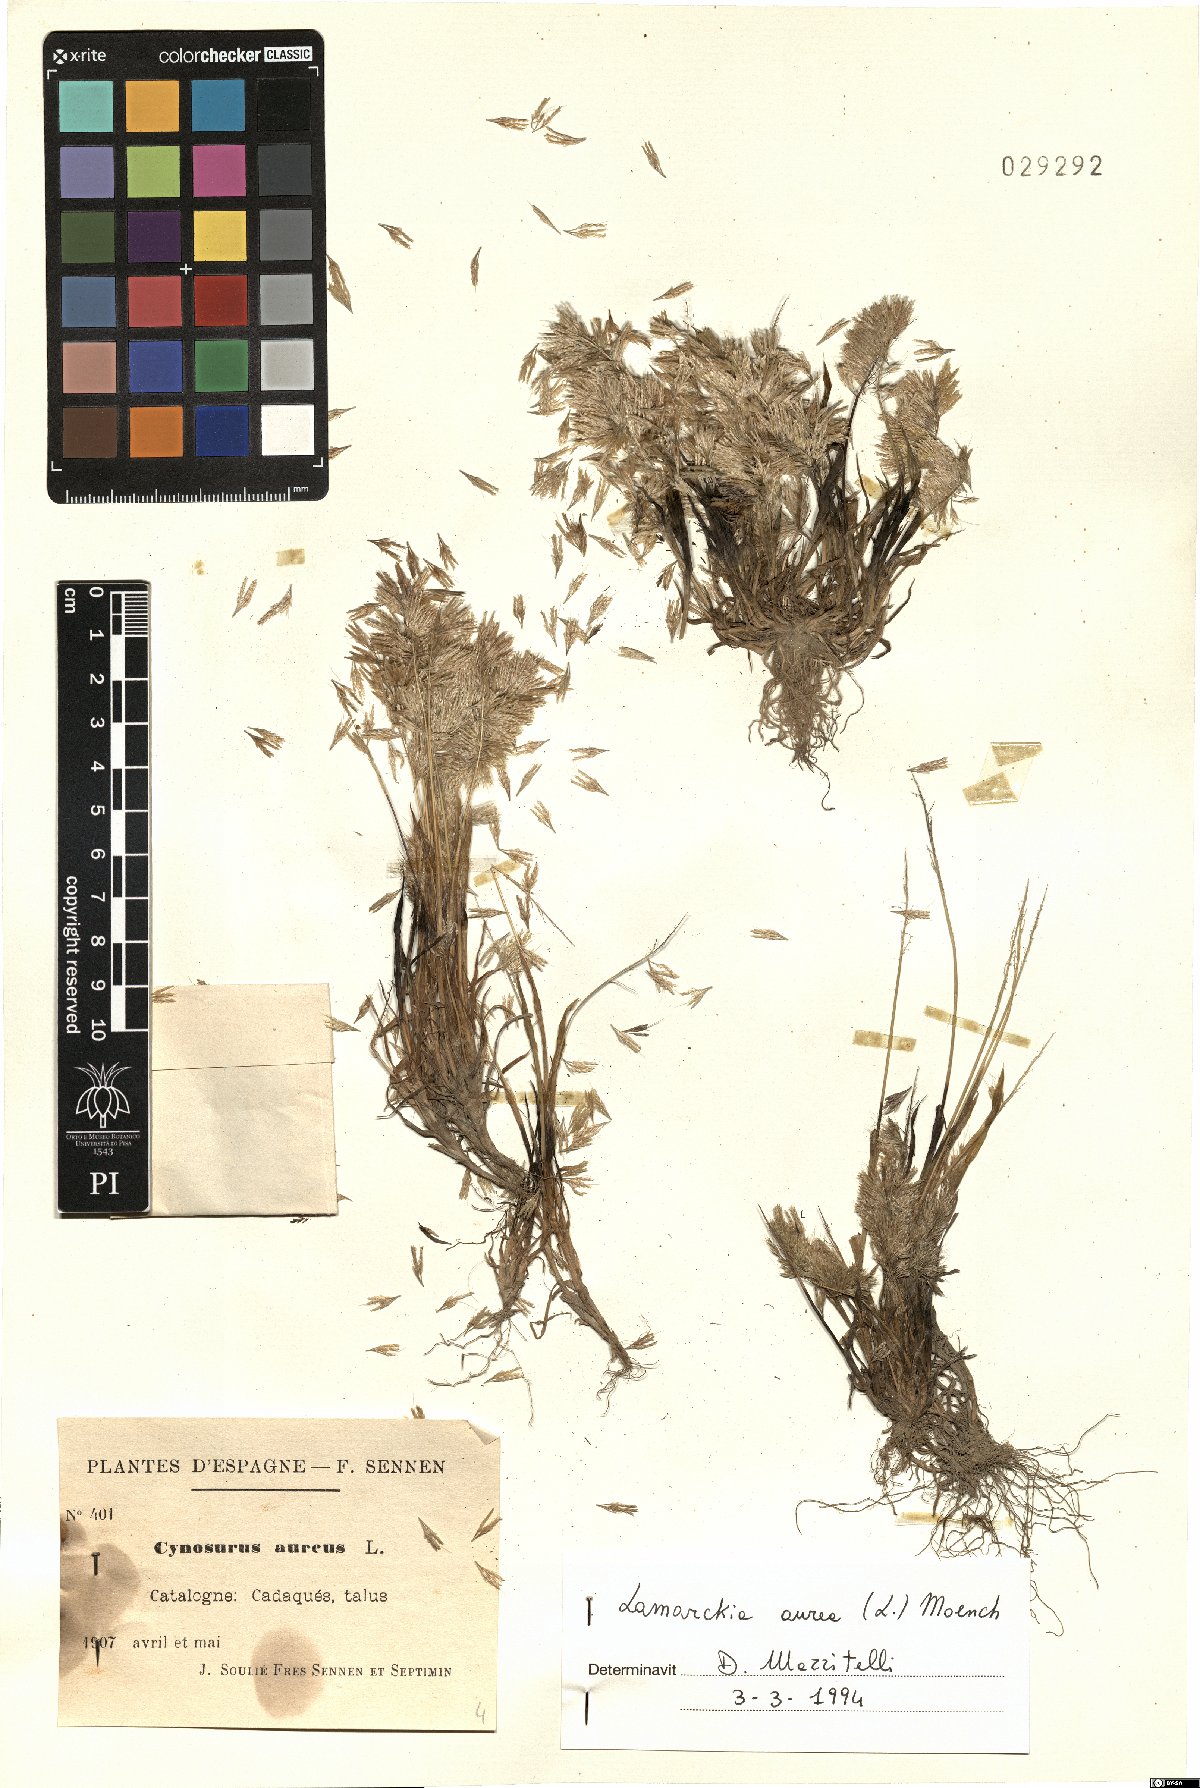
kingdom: Plantae
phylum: Tracheophyta
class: Liliopsida
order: Poales
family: Poaceae
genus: Lamarckia
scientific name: Lamarckia aurea
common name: Golden dog's-tail
